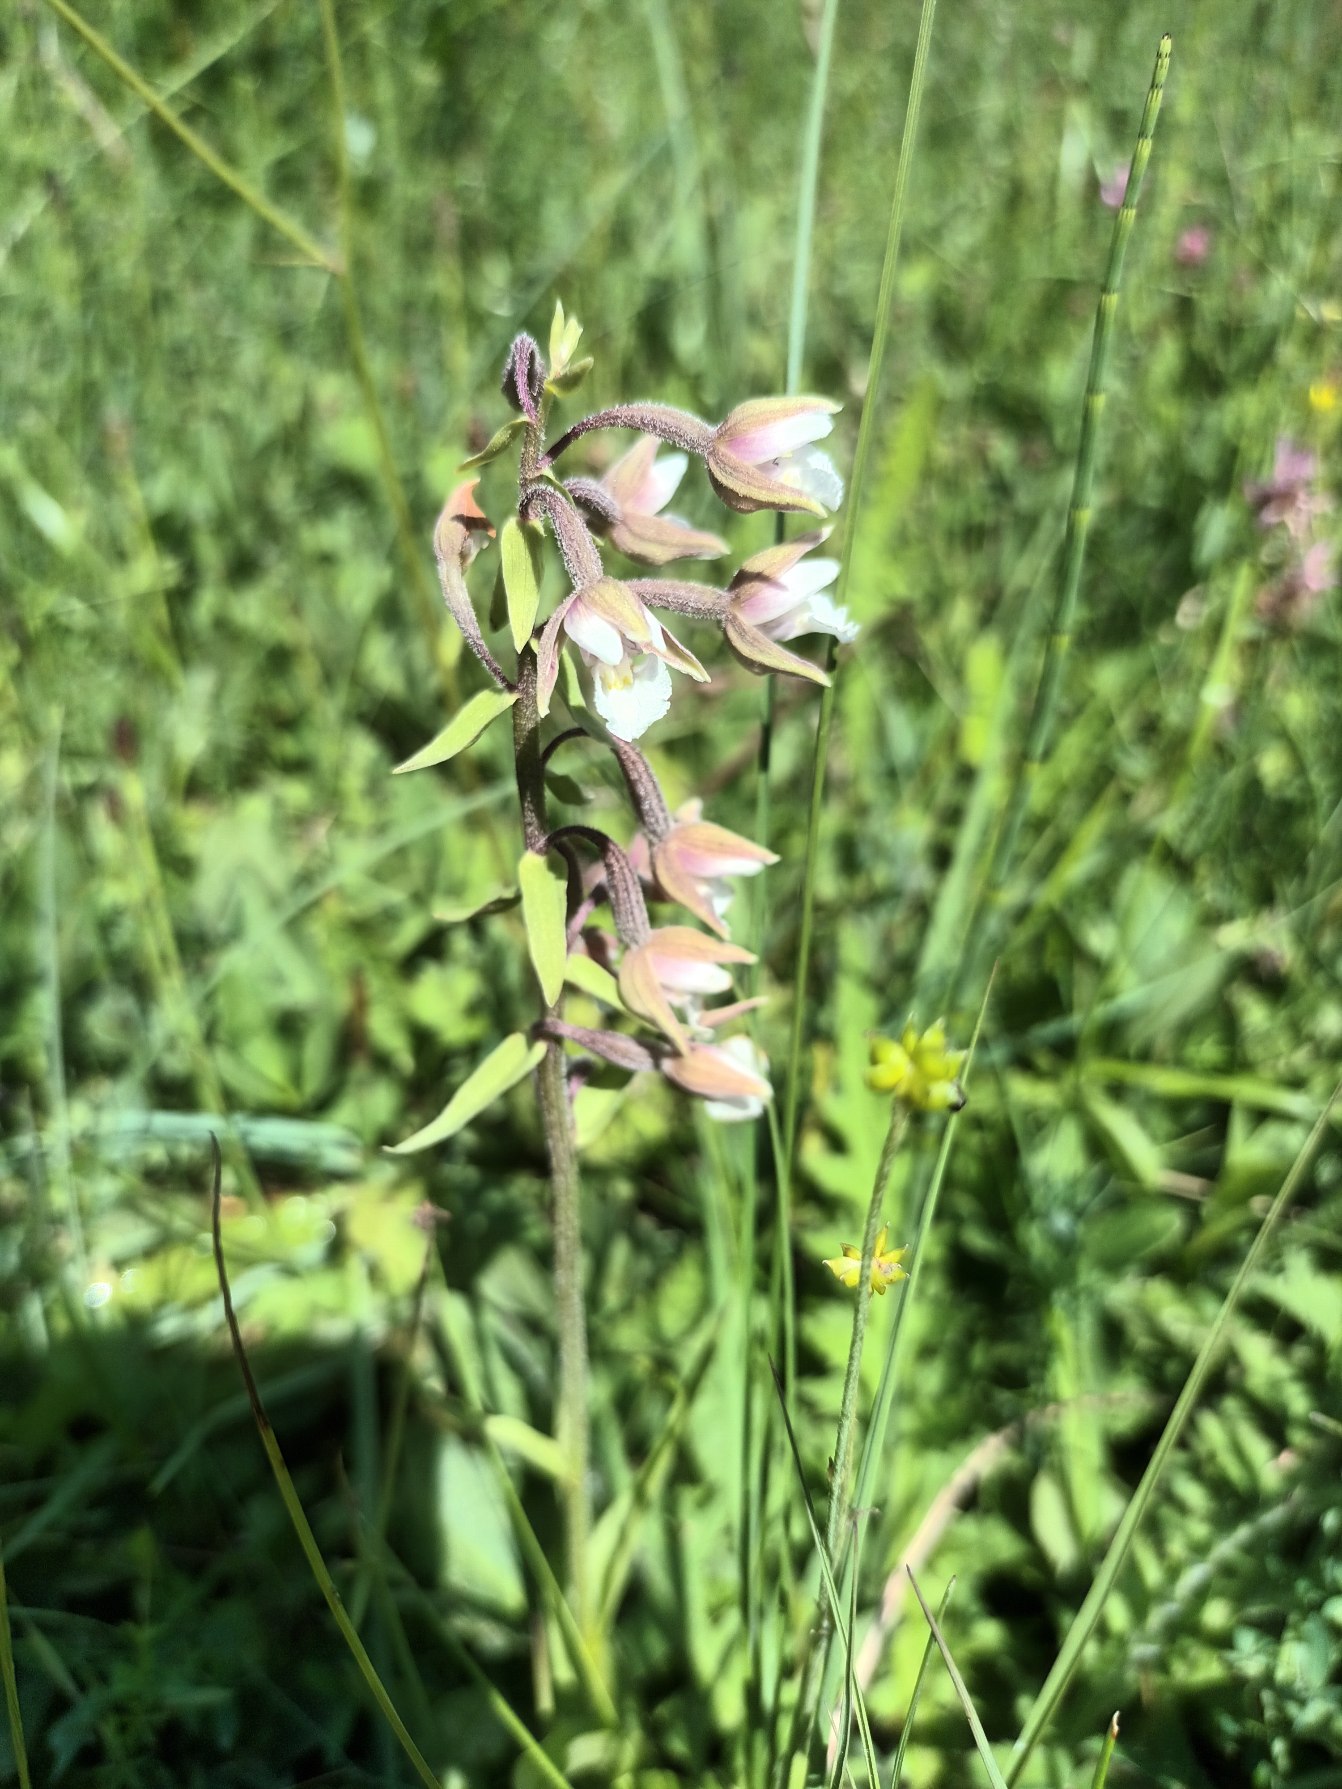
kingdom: Plantae
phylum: Tracheophyta
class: Liliopsida
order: Asparagales
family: Orchidaceae
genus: Epipactis
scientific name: Epipactis palustris
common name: Sump-hullæbe
